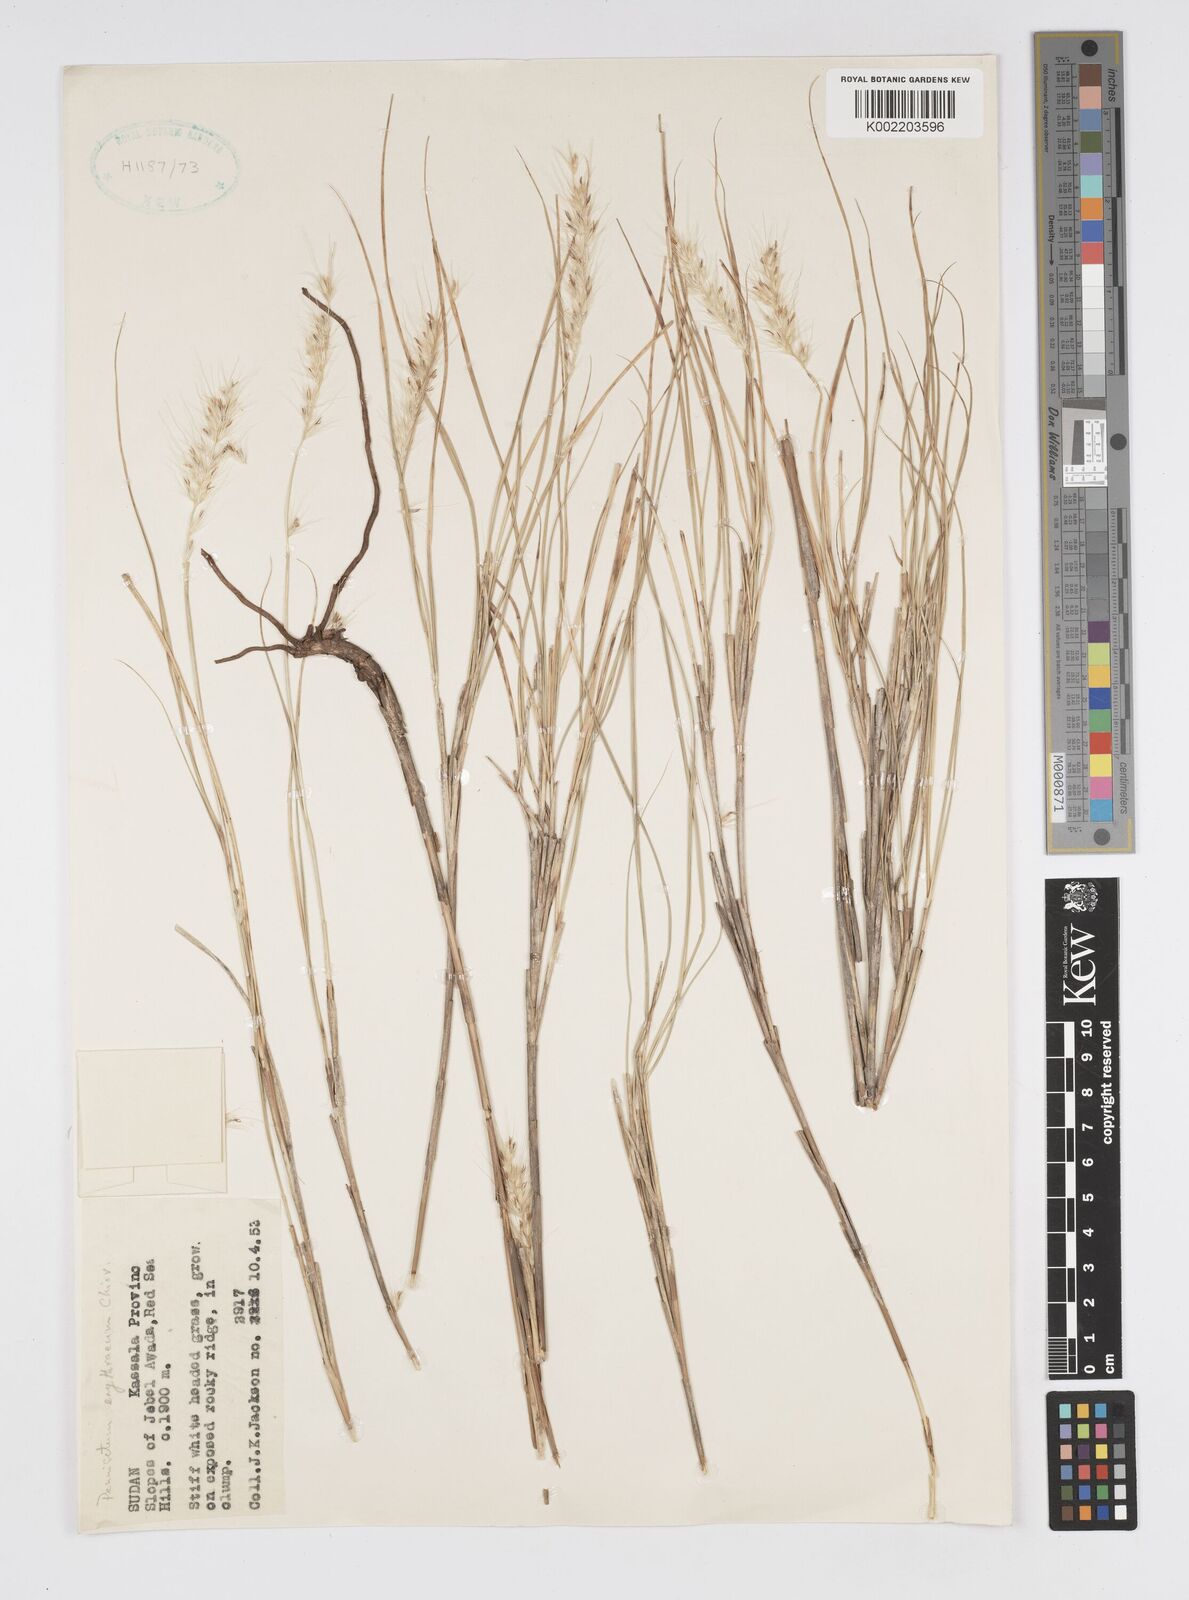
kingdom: Plantae
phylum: Tracheophyta
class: Liliopsida
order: Poales
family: Poaceae
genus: Cenchrus
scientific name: Cenchrus setaceus
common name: Crimson fountaingrass
